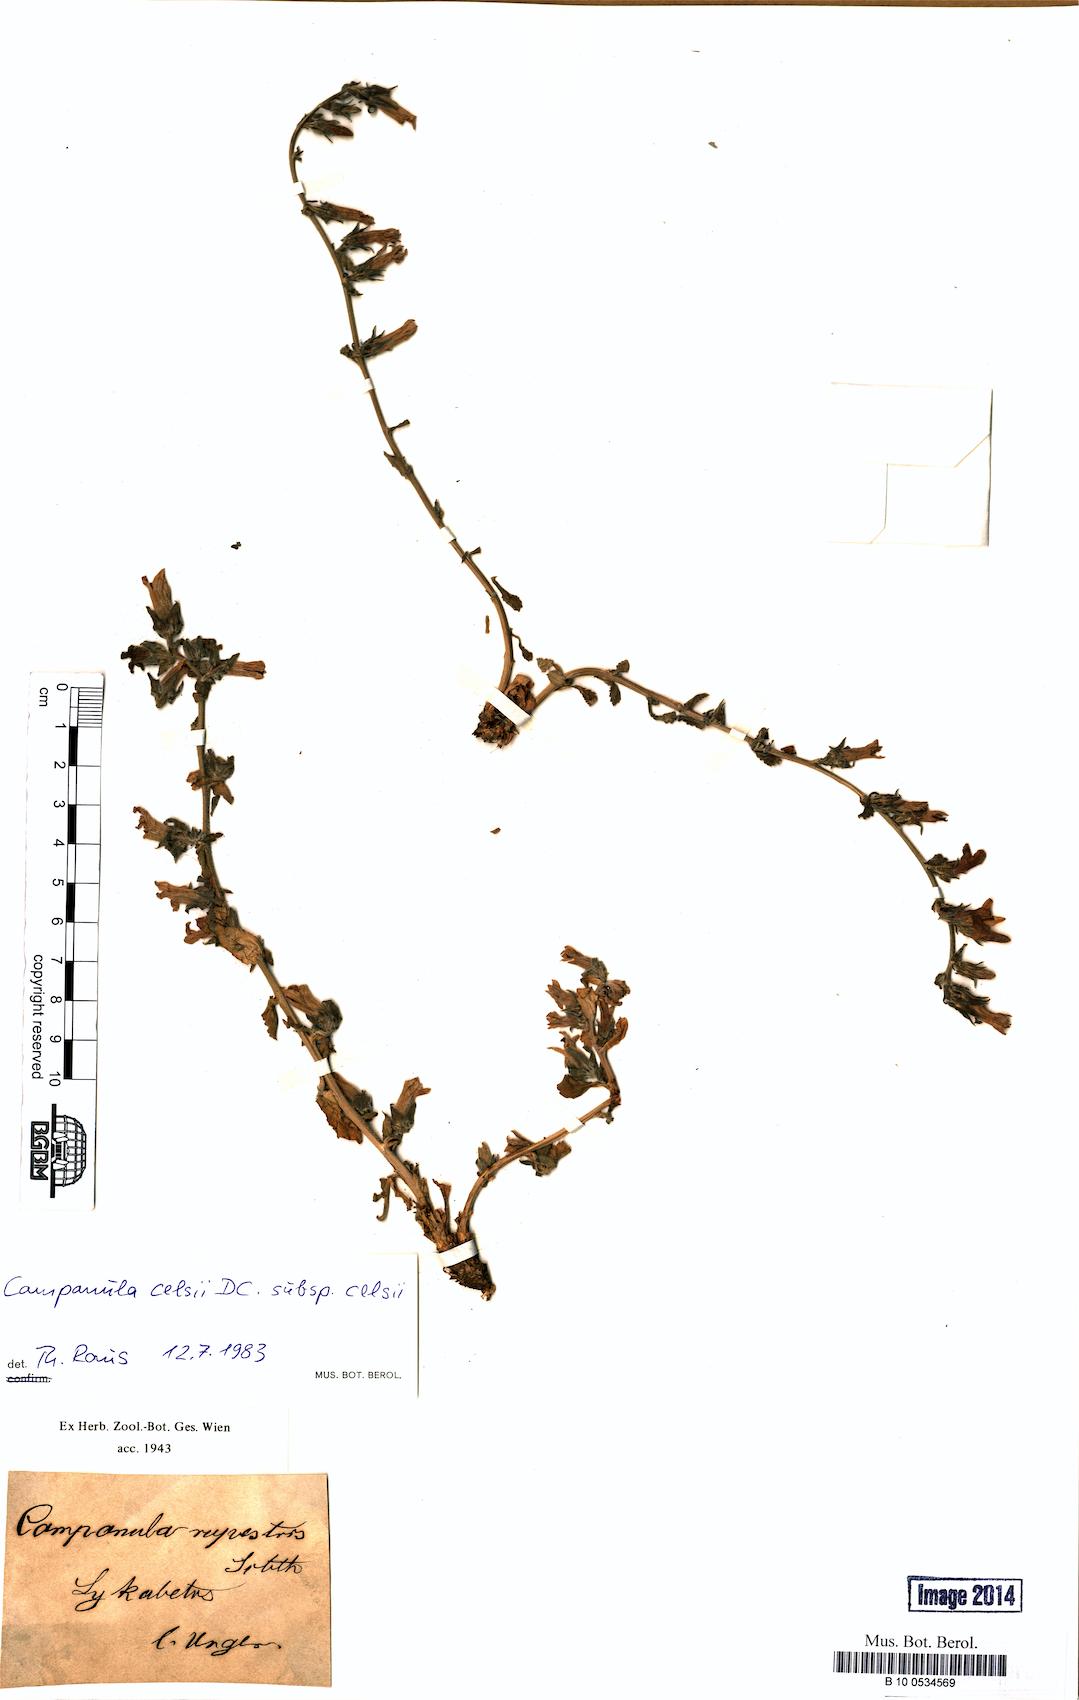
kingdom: Plantae
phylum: Tracheophyta
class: Magnoliopsida
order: Asterales
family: Campanulaceae
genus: Campanula
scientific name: Campanula celsii
